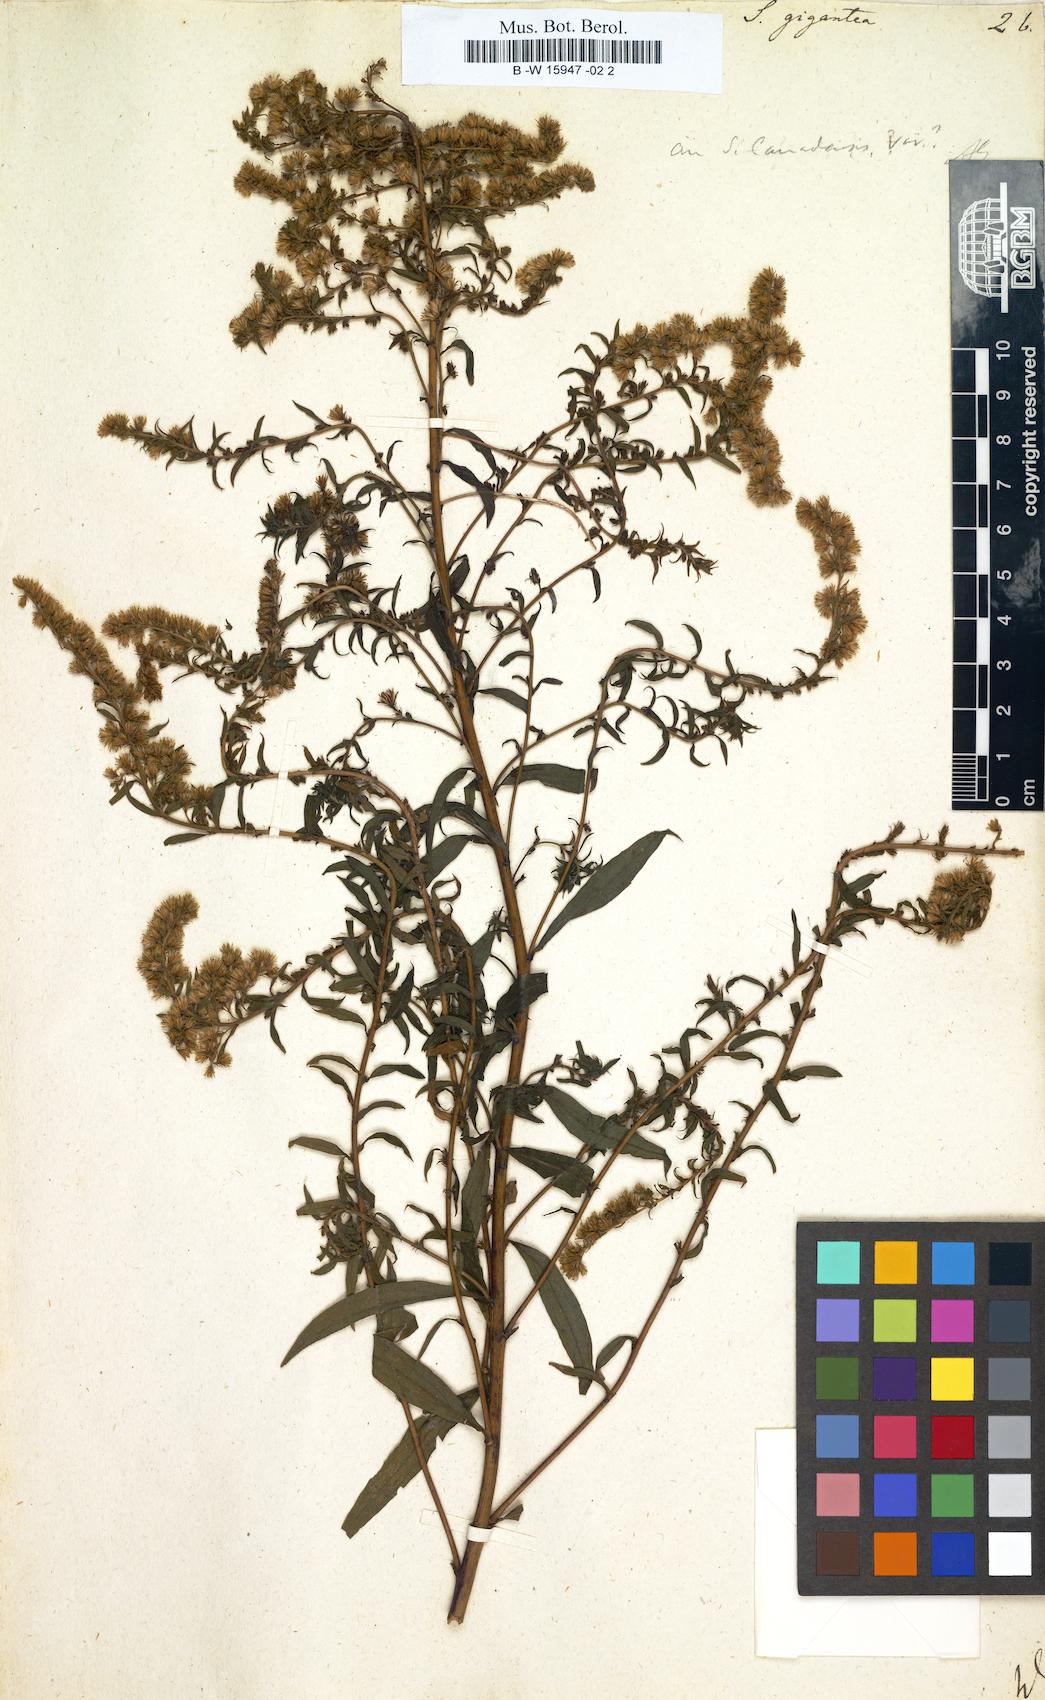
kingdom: Plantae
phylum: Tracheophyta
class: Magnoliopsida
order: Asterales
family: Asteraceae
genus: Solidago
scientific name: Solidago gigantea
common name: Giant goldenrod
